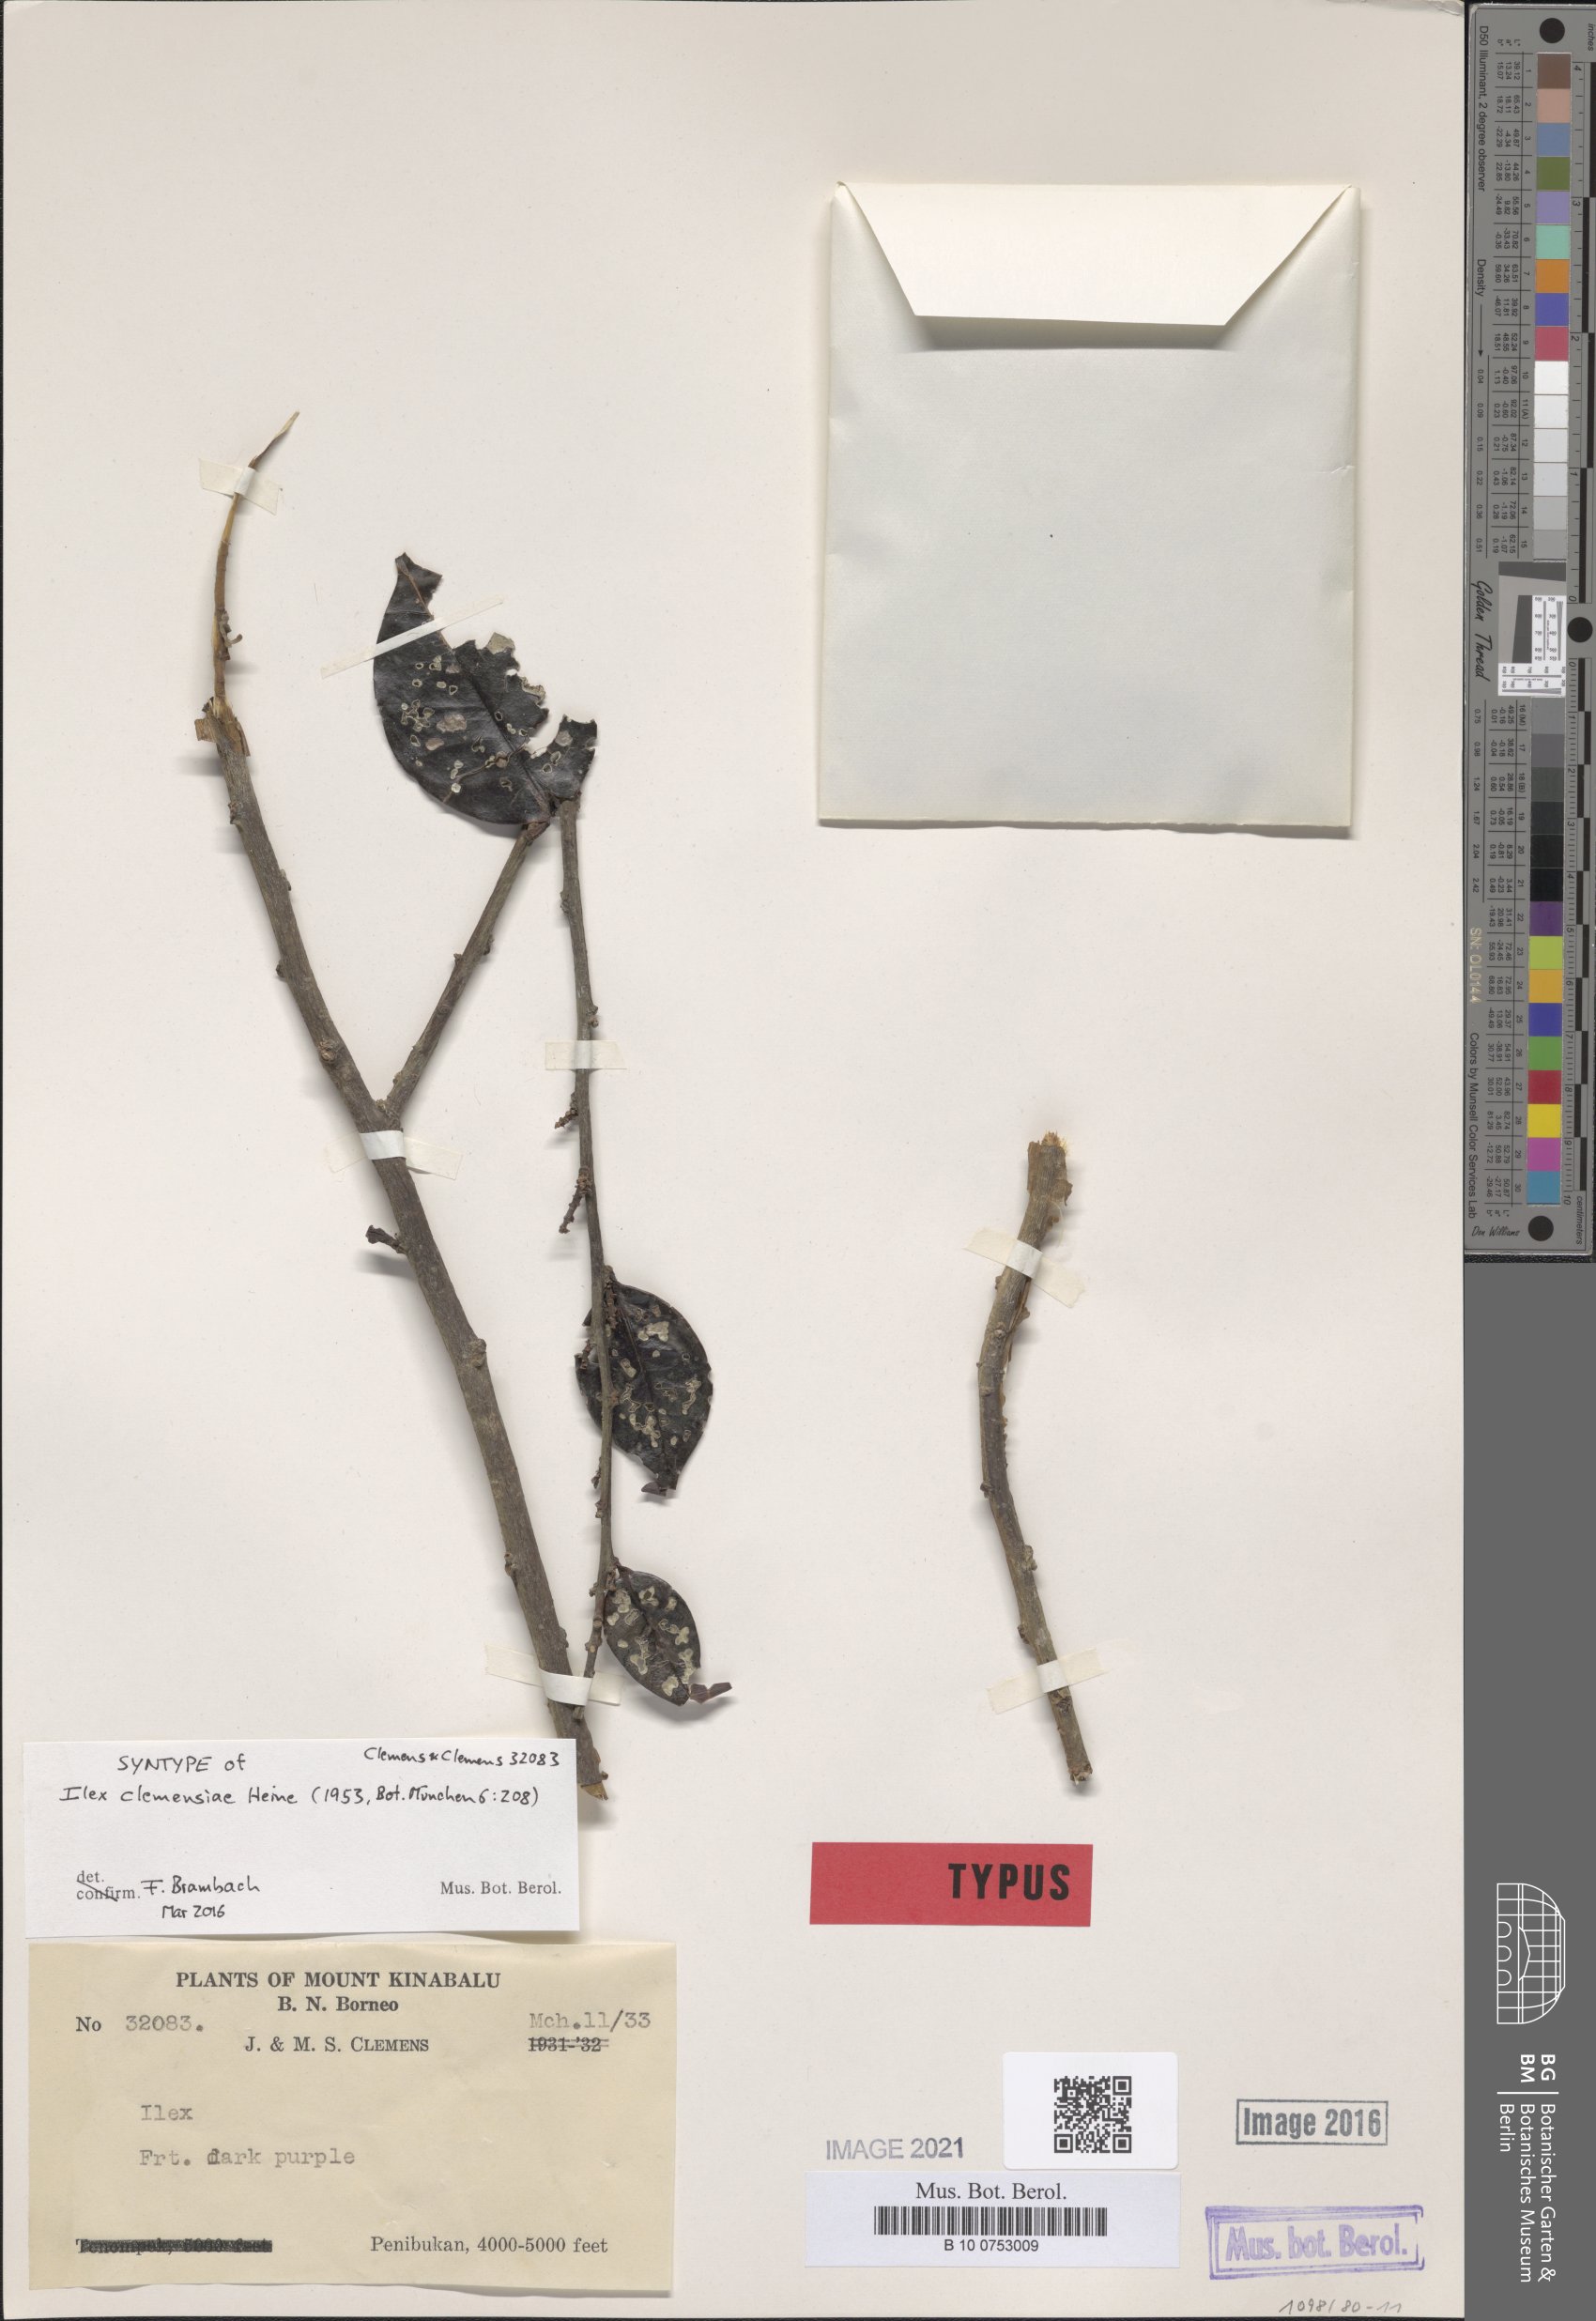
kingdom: Plantae
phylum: Tracheophyta
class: Magnoliopsida
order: Aquifoliales
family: Aquifoliaceae
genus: Ilex
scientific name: Ilex
